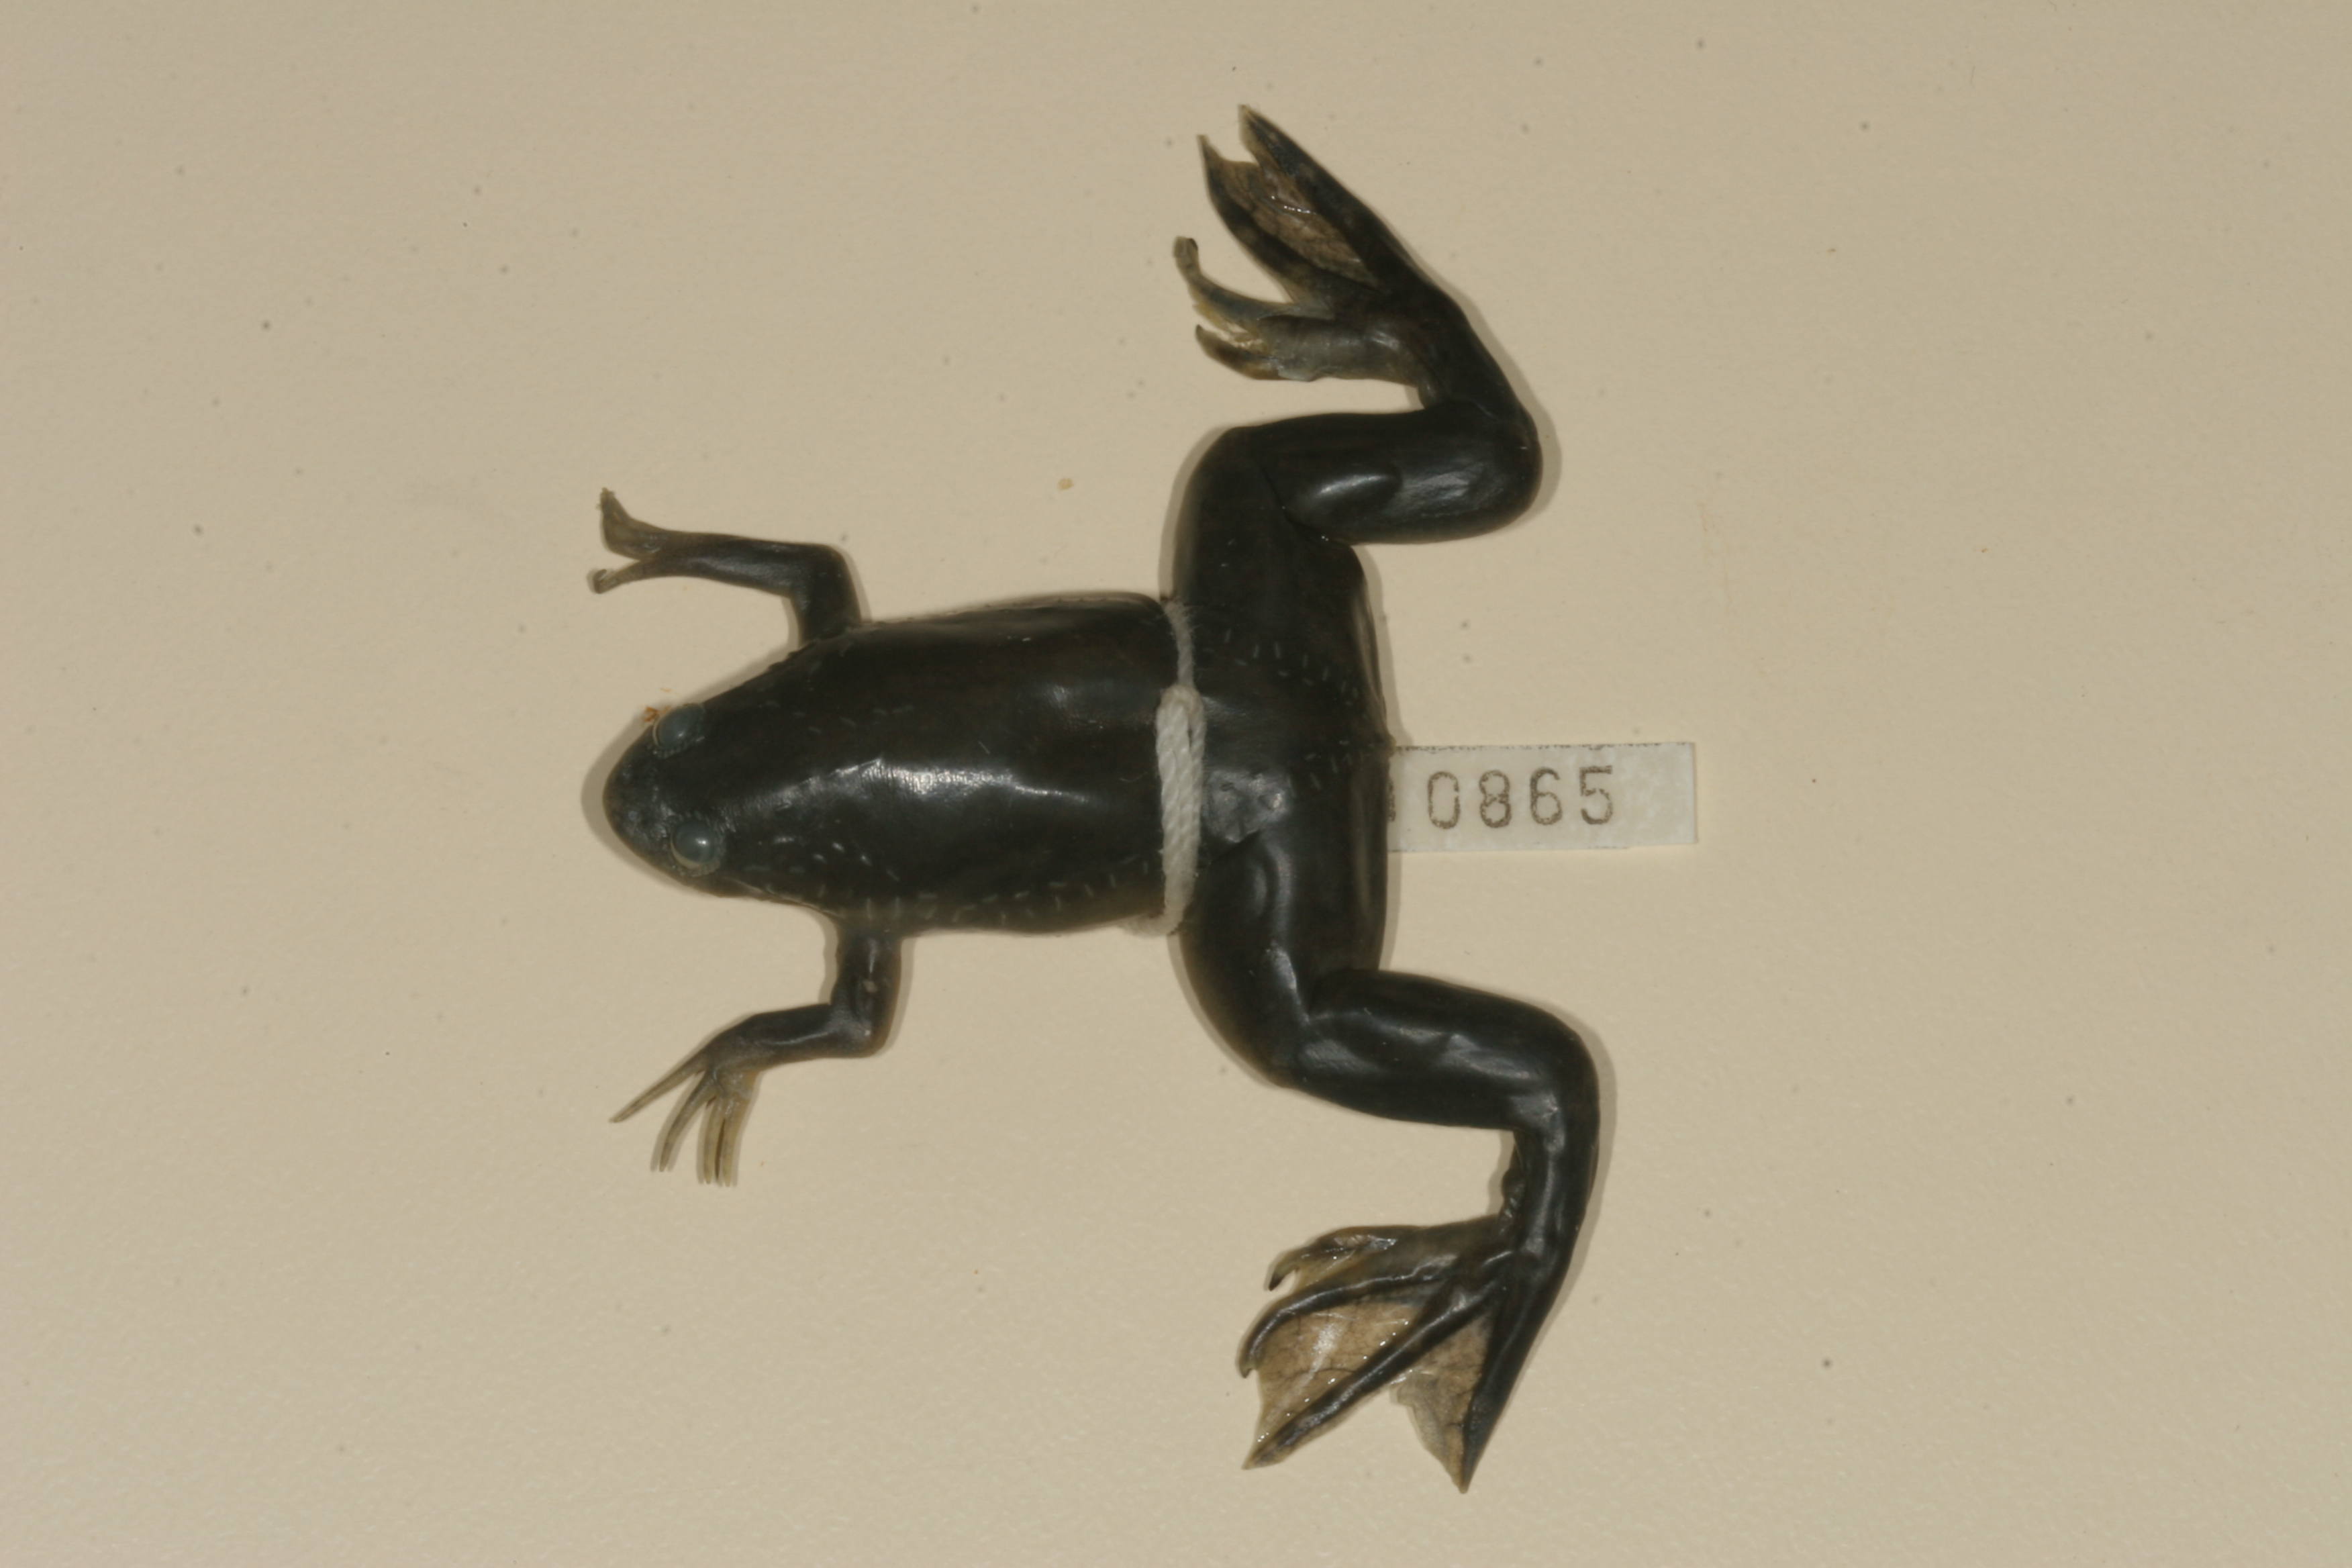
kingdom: Animalia
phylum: Chordata
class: Amphibia
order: Anura
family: Pipidae
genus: Xenopus
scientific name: Xenopus laevis
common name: African clawed frog
